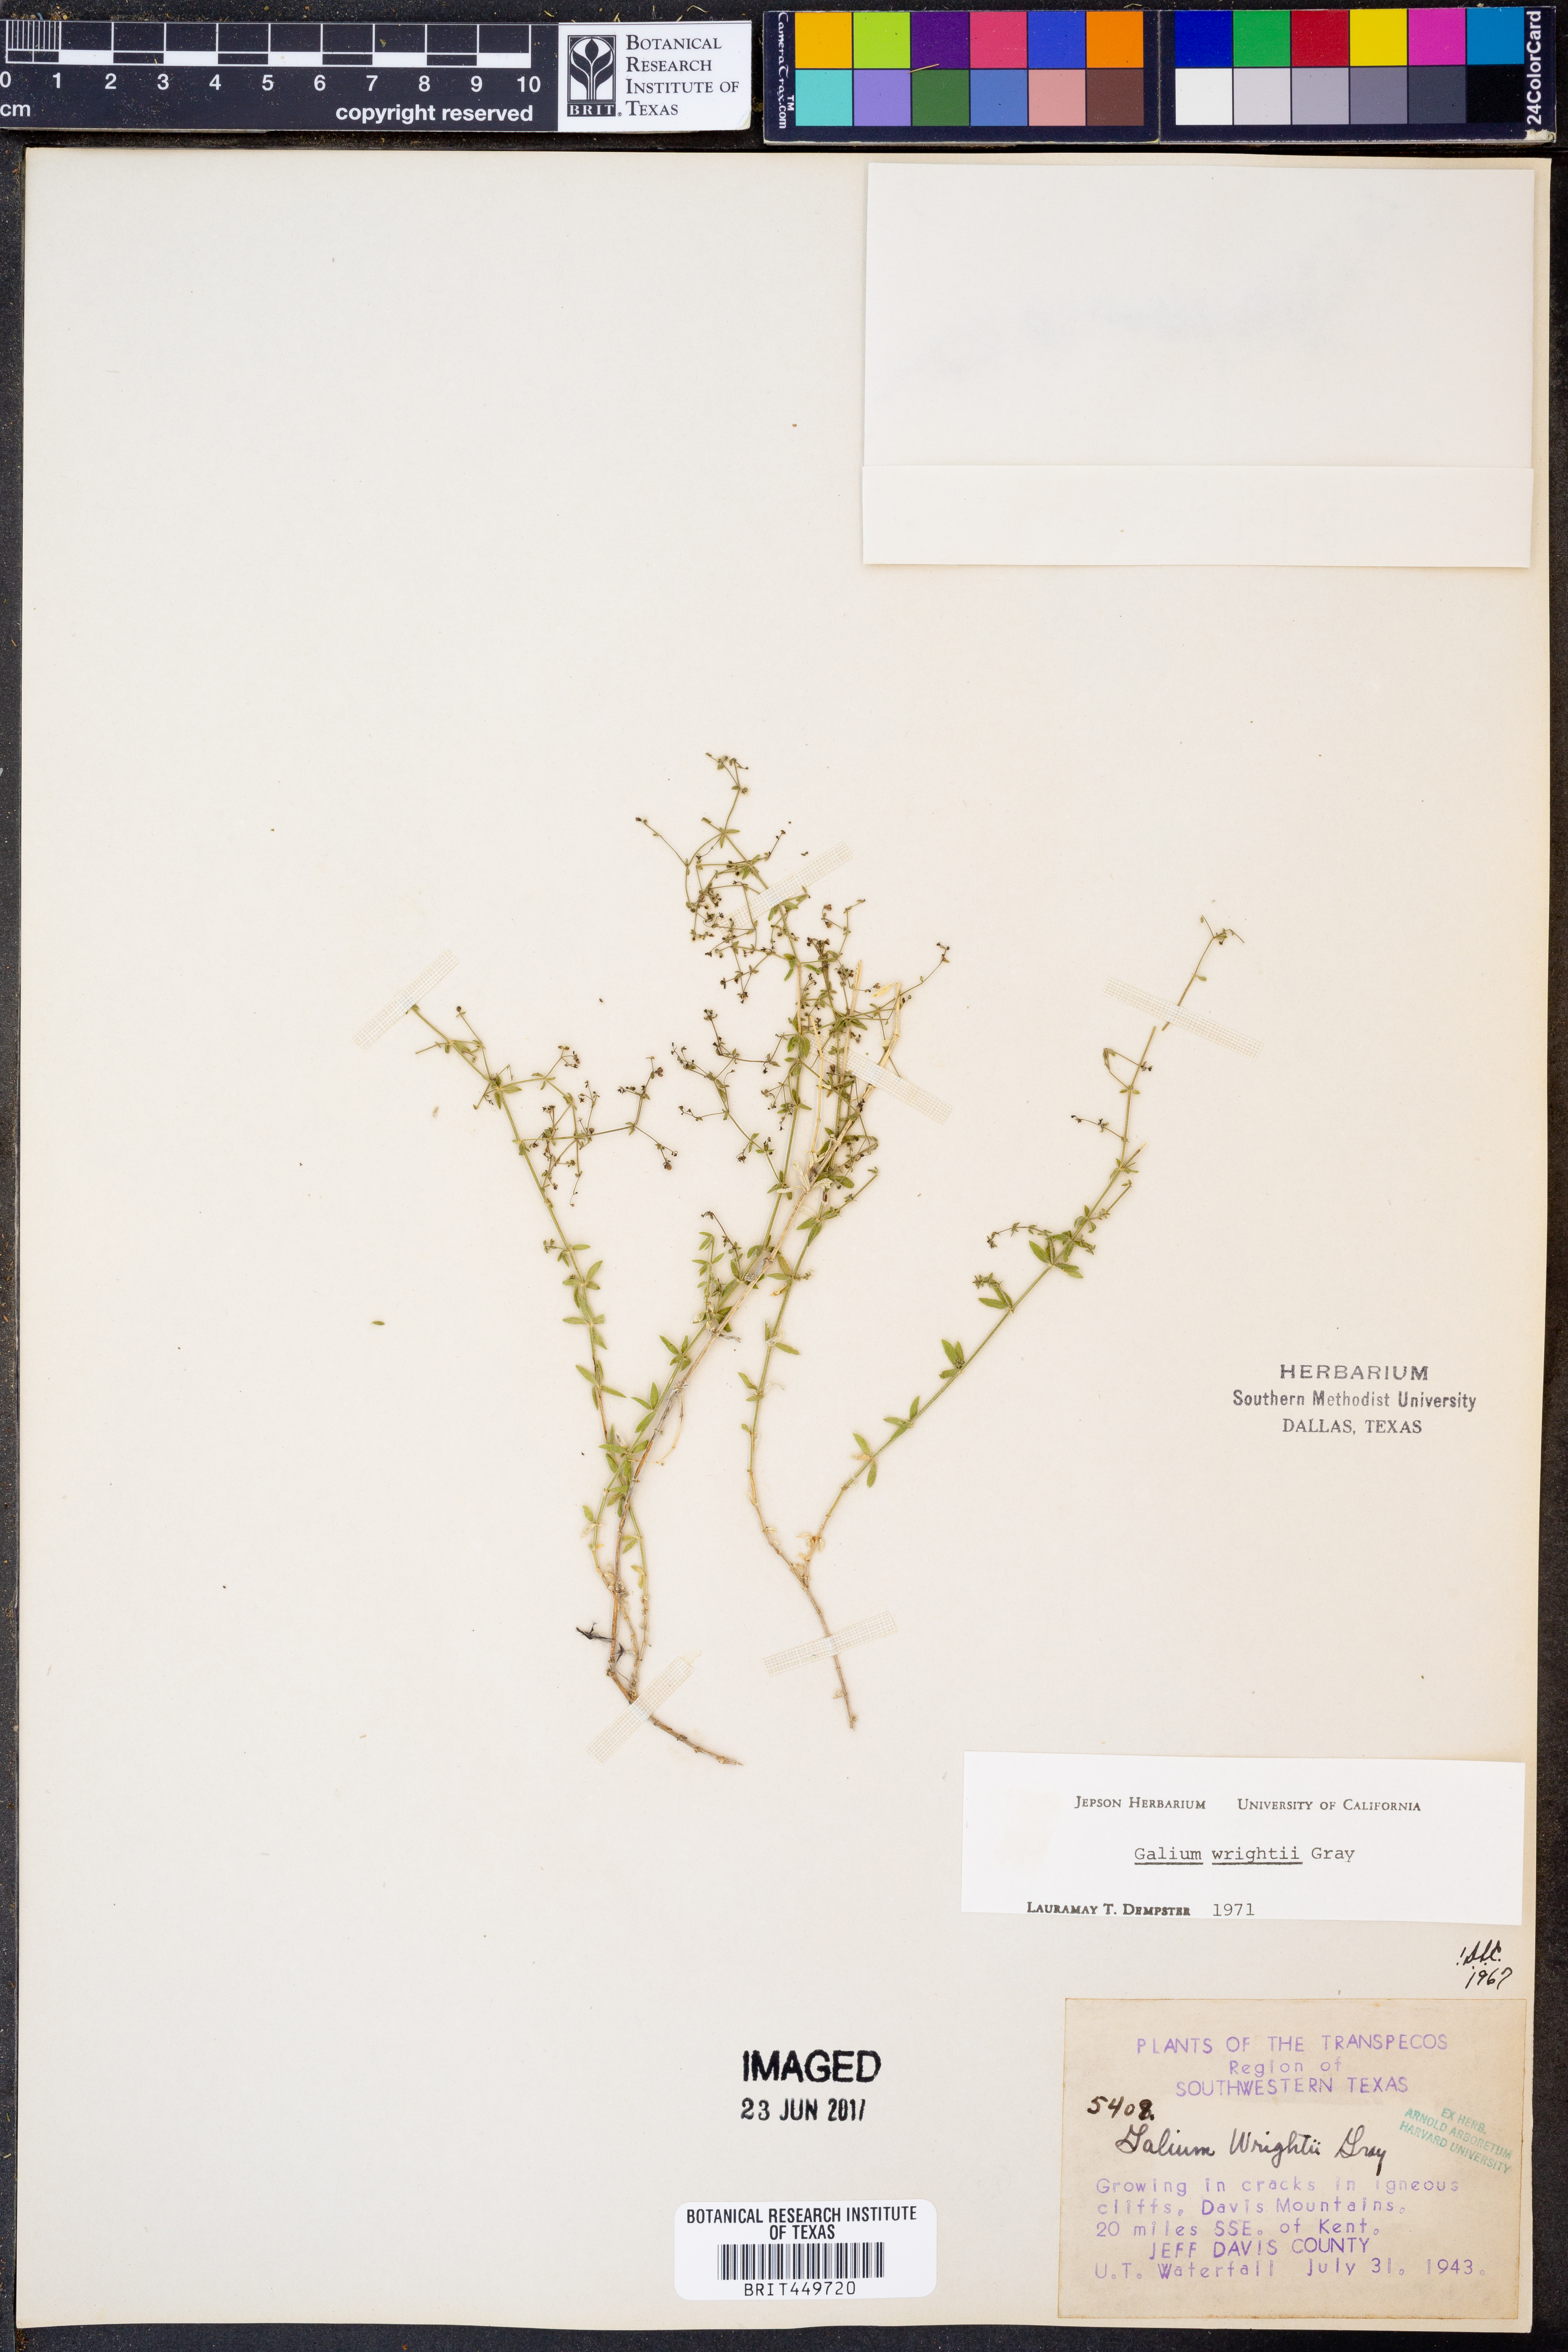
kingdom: Plantae
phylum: Tracheophyta
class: Magnoliopsida
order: Gentianales
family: Rubiaceae
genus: Galium
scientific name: Galium wrightii
